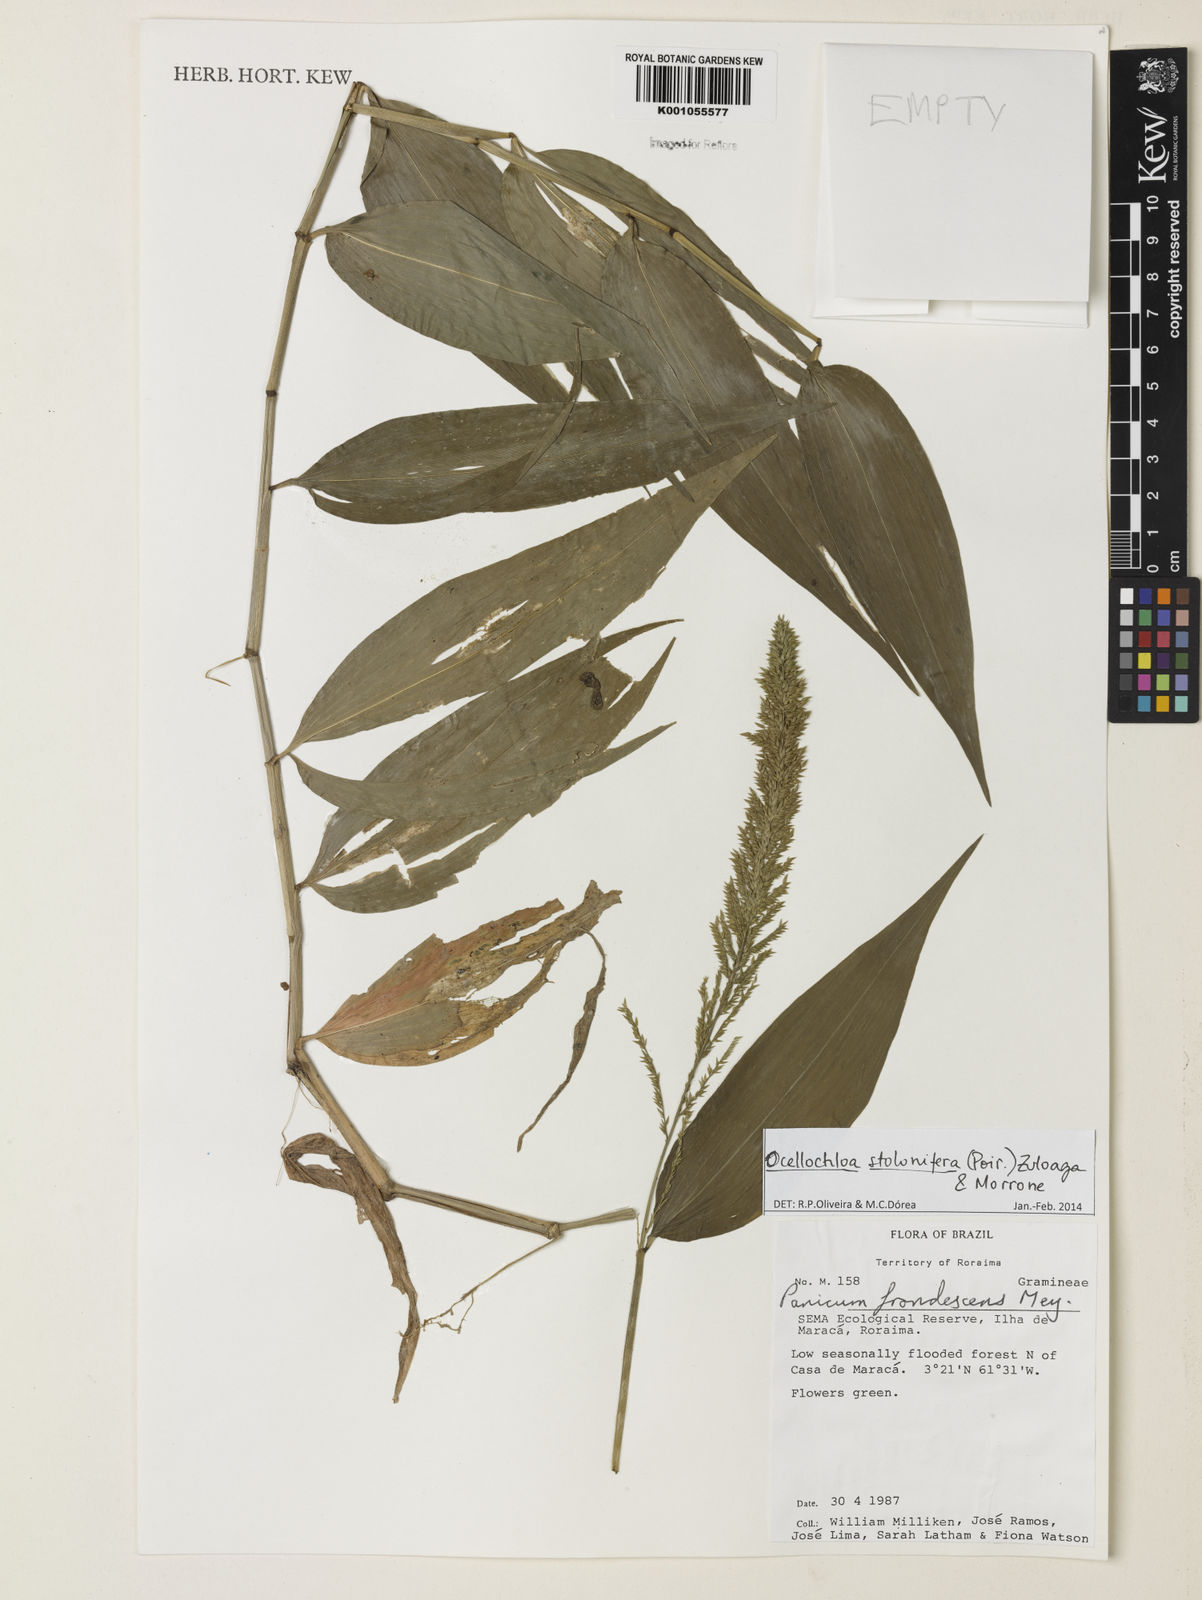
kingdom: Plantae
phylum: Tracheophyta
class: Liliopsida
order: Poales
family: Poaceae
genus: Ocellochloa
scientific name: Ocellochloa stolonifera
